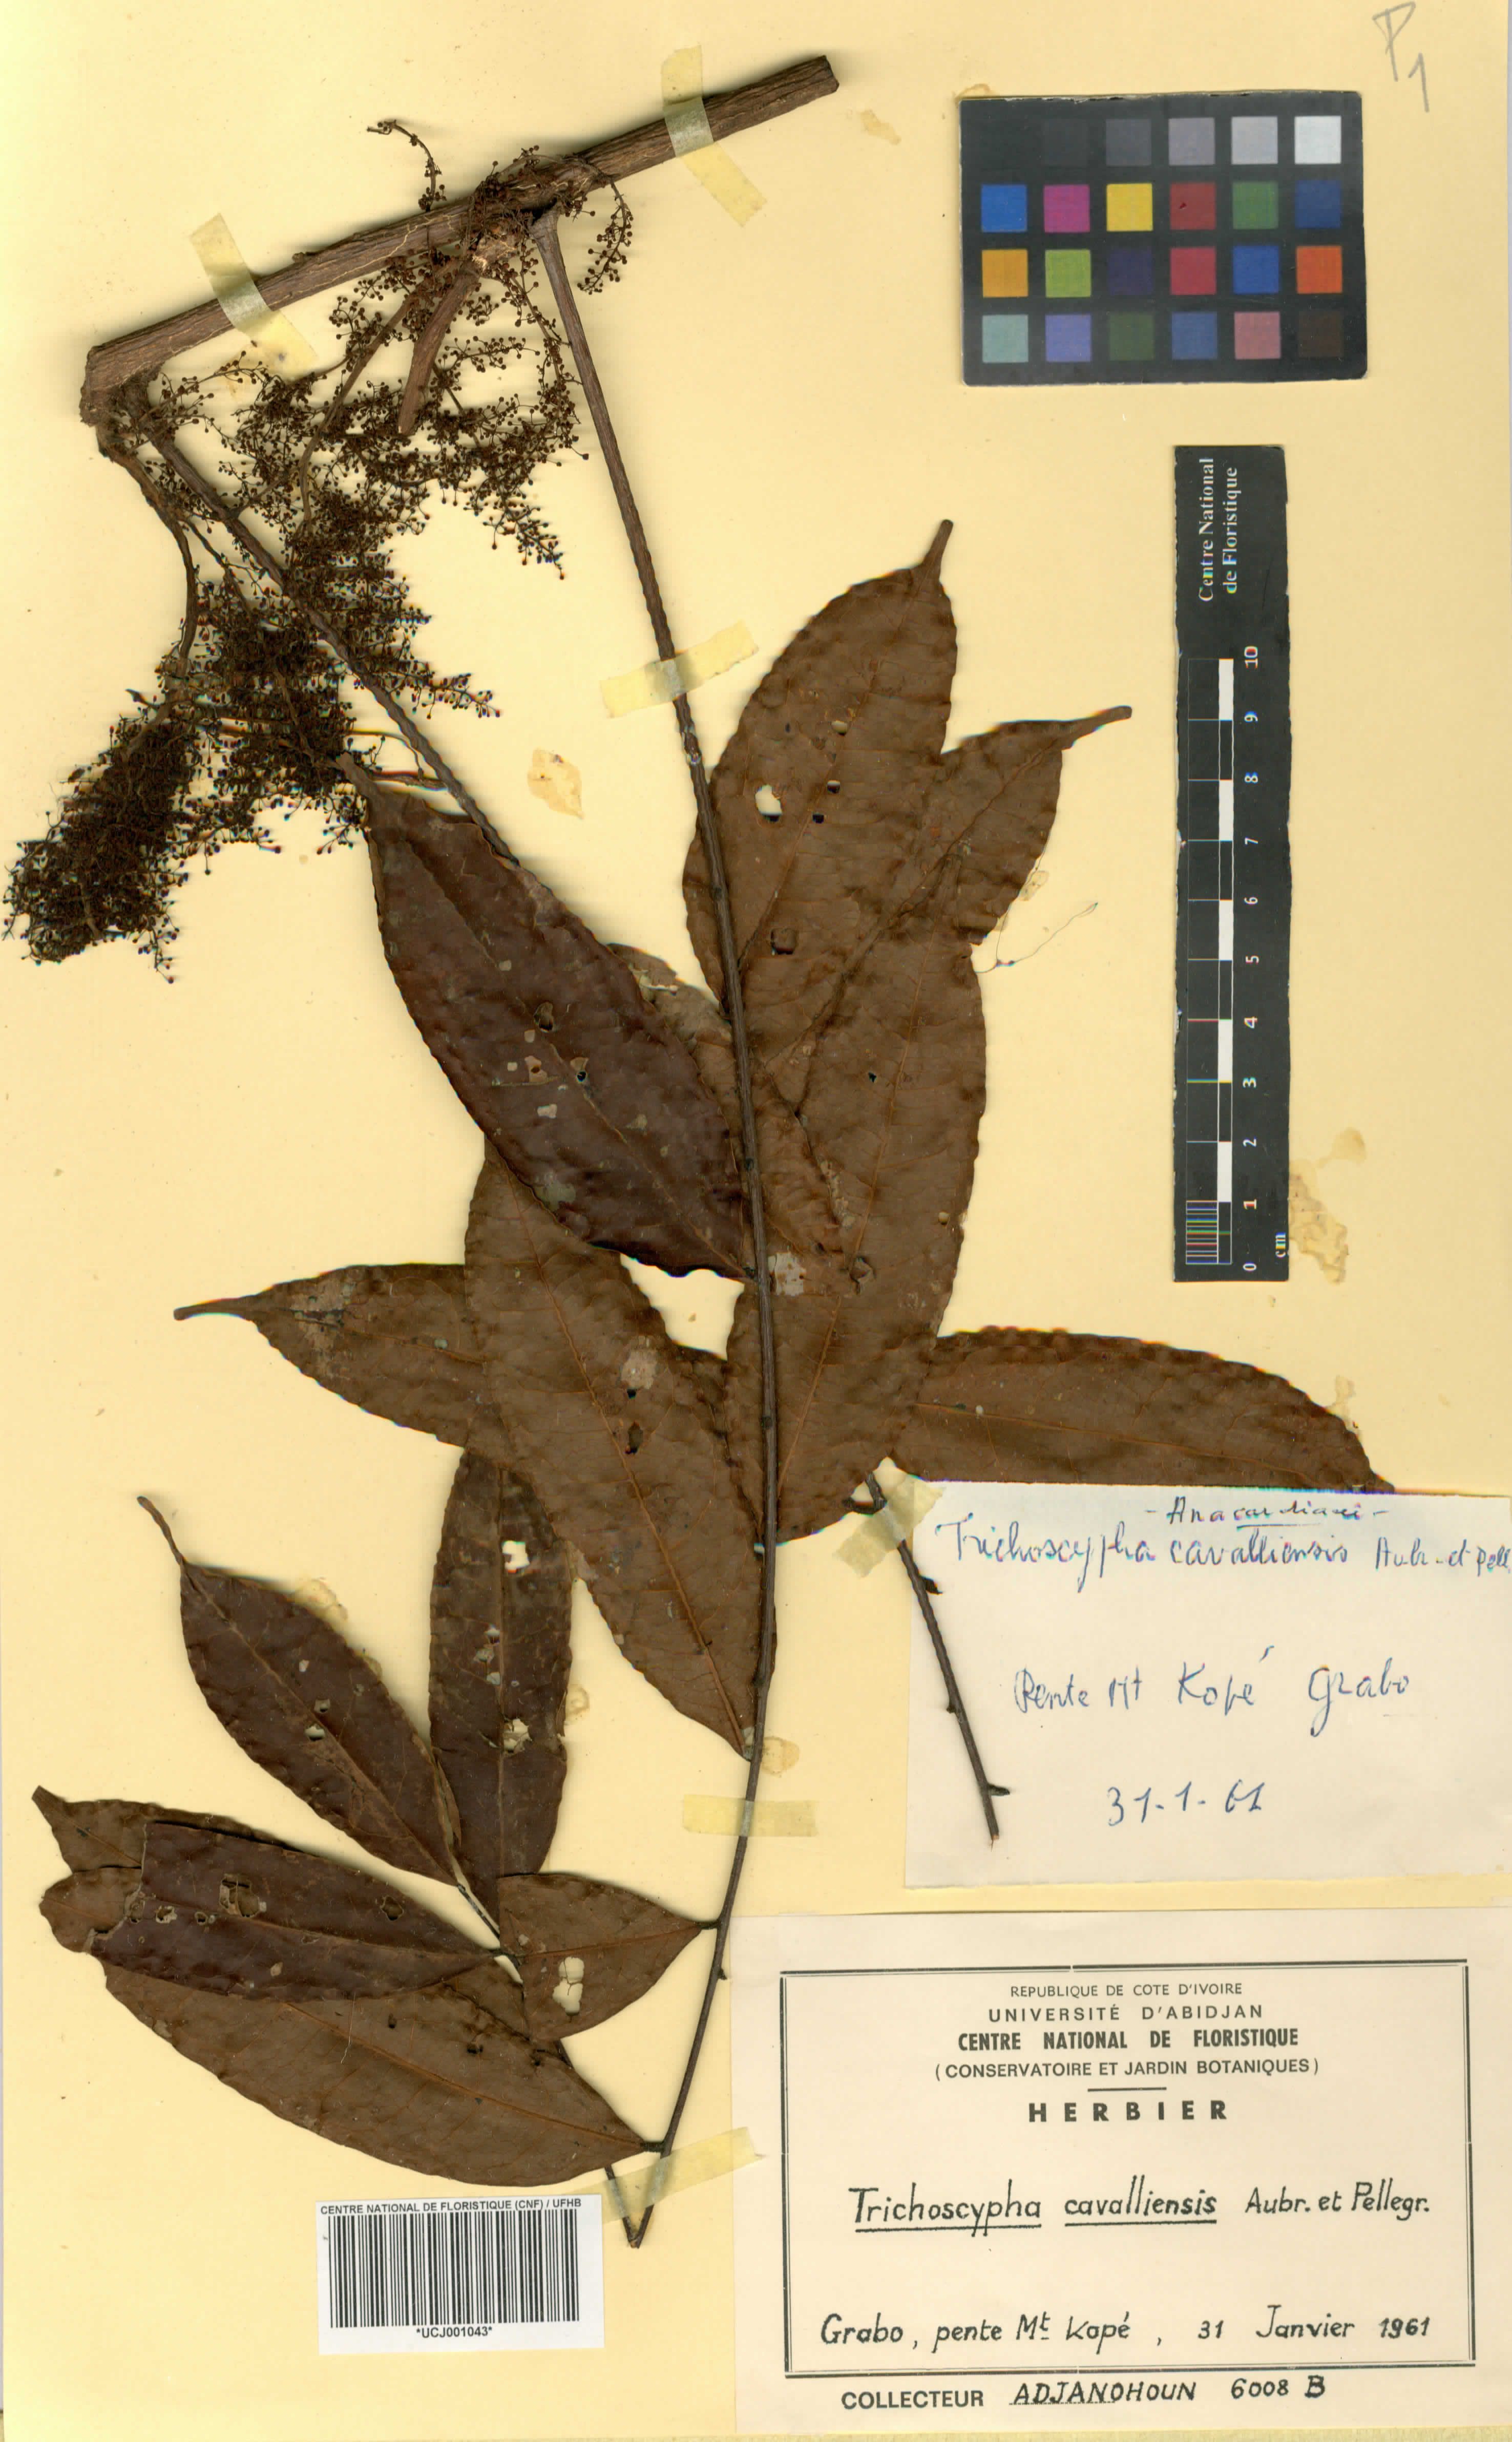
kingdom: Plantae
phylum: Tracheophyta
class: Magnoliopsida
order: Sapindales
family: Anacardiaceae
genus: Trichoscypha
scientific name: Trichoscypha cavalliensis
